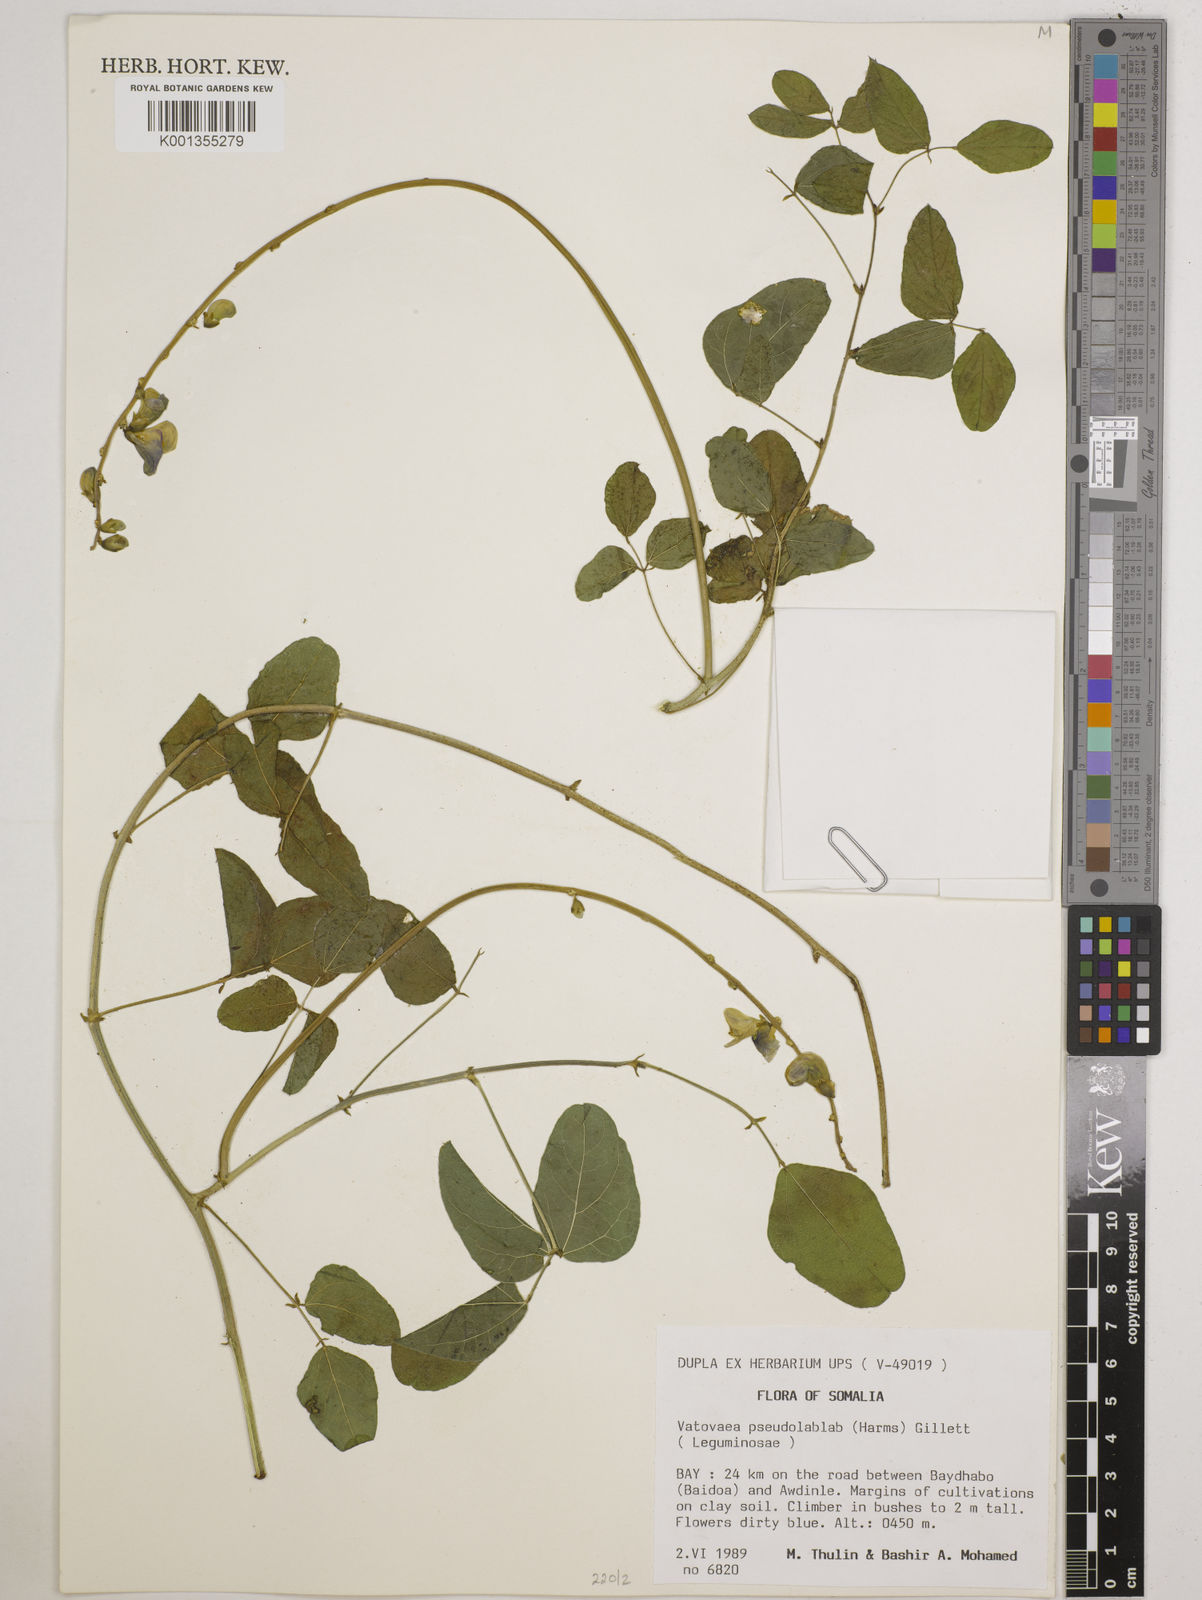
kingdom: Plantae
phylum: Tracheophyta
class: Magnoliopsida
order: Fabales
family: Fabaceae
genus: Vatovaea
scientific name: Vatovaea pseudolablab
